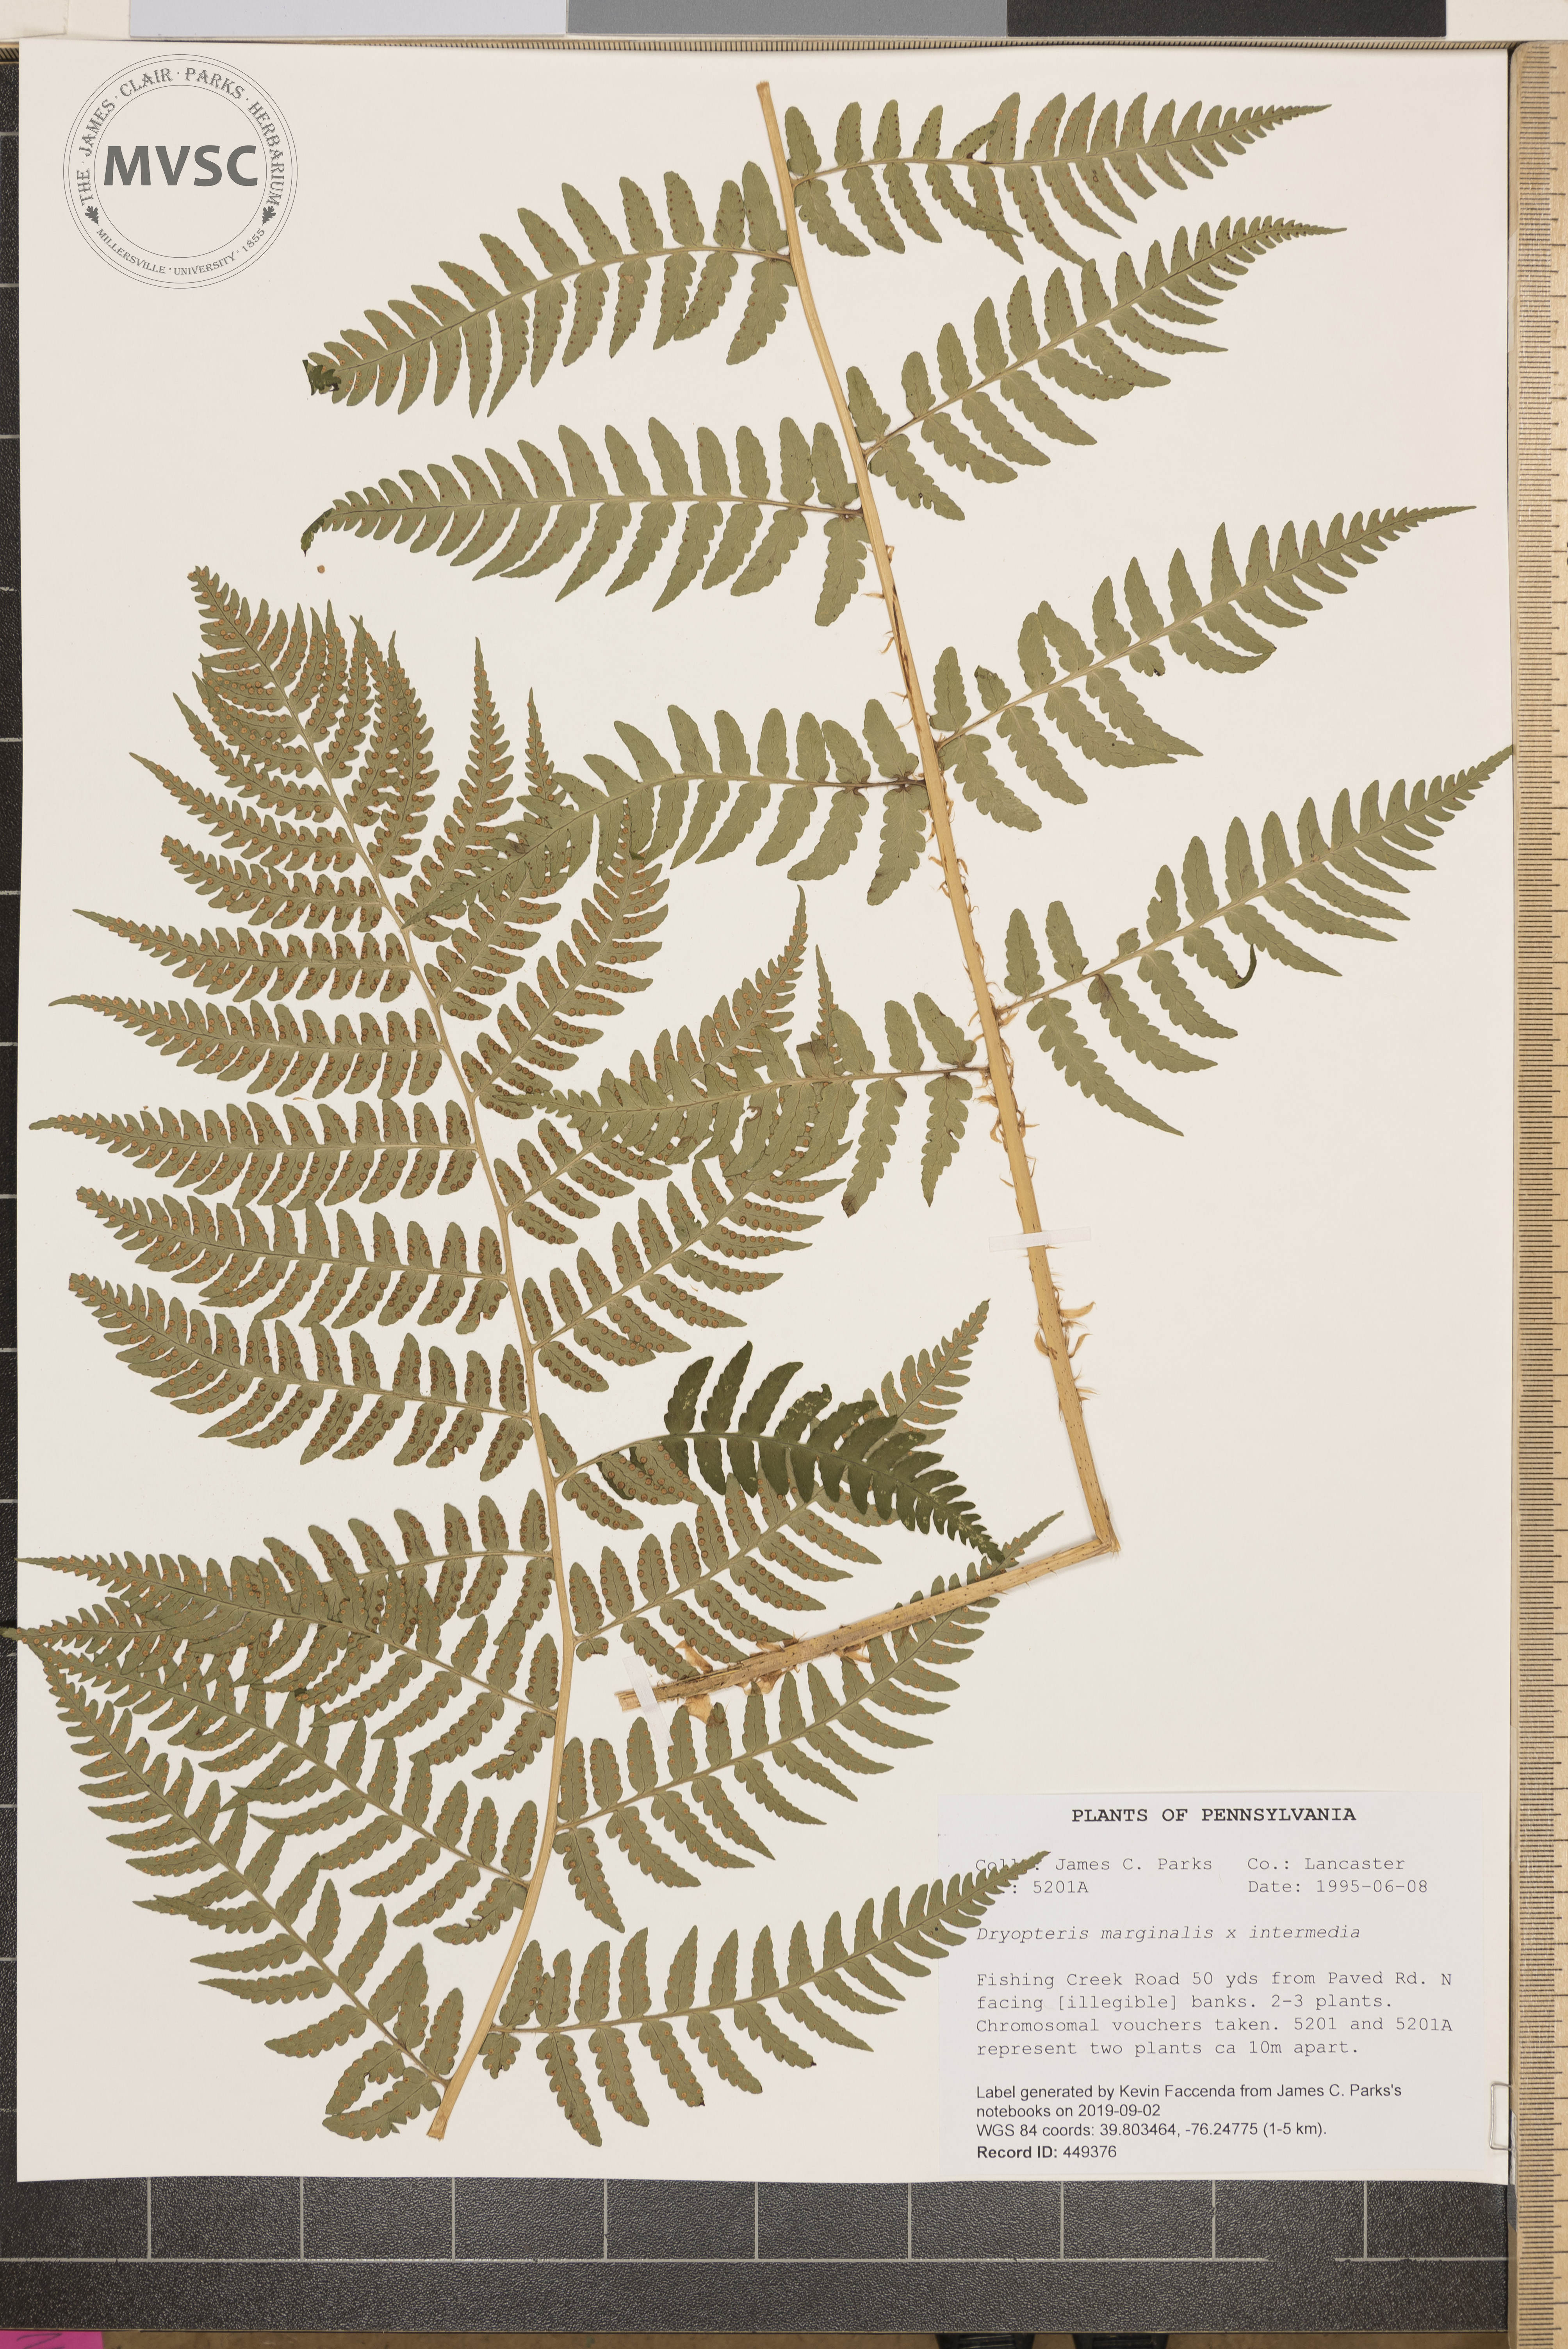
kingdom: Plantae
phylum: Tracheophyta
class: Polypodiopsida
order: Polypodiales
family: Dryopteridaceae
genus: Dryopteris
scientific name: Dryopteris
